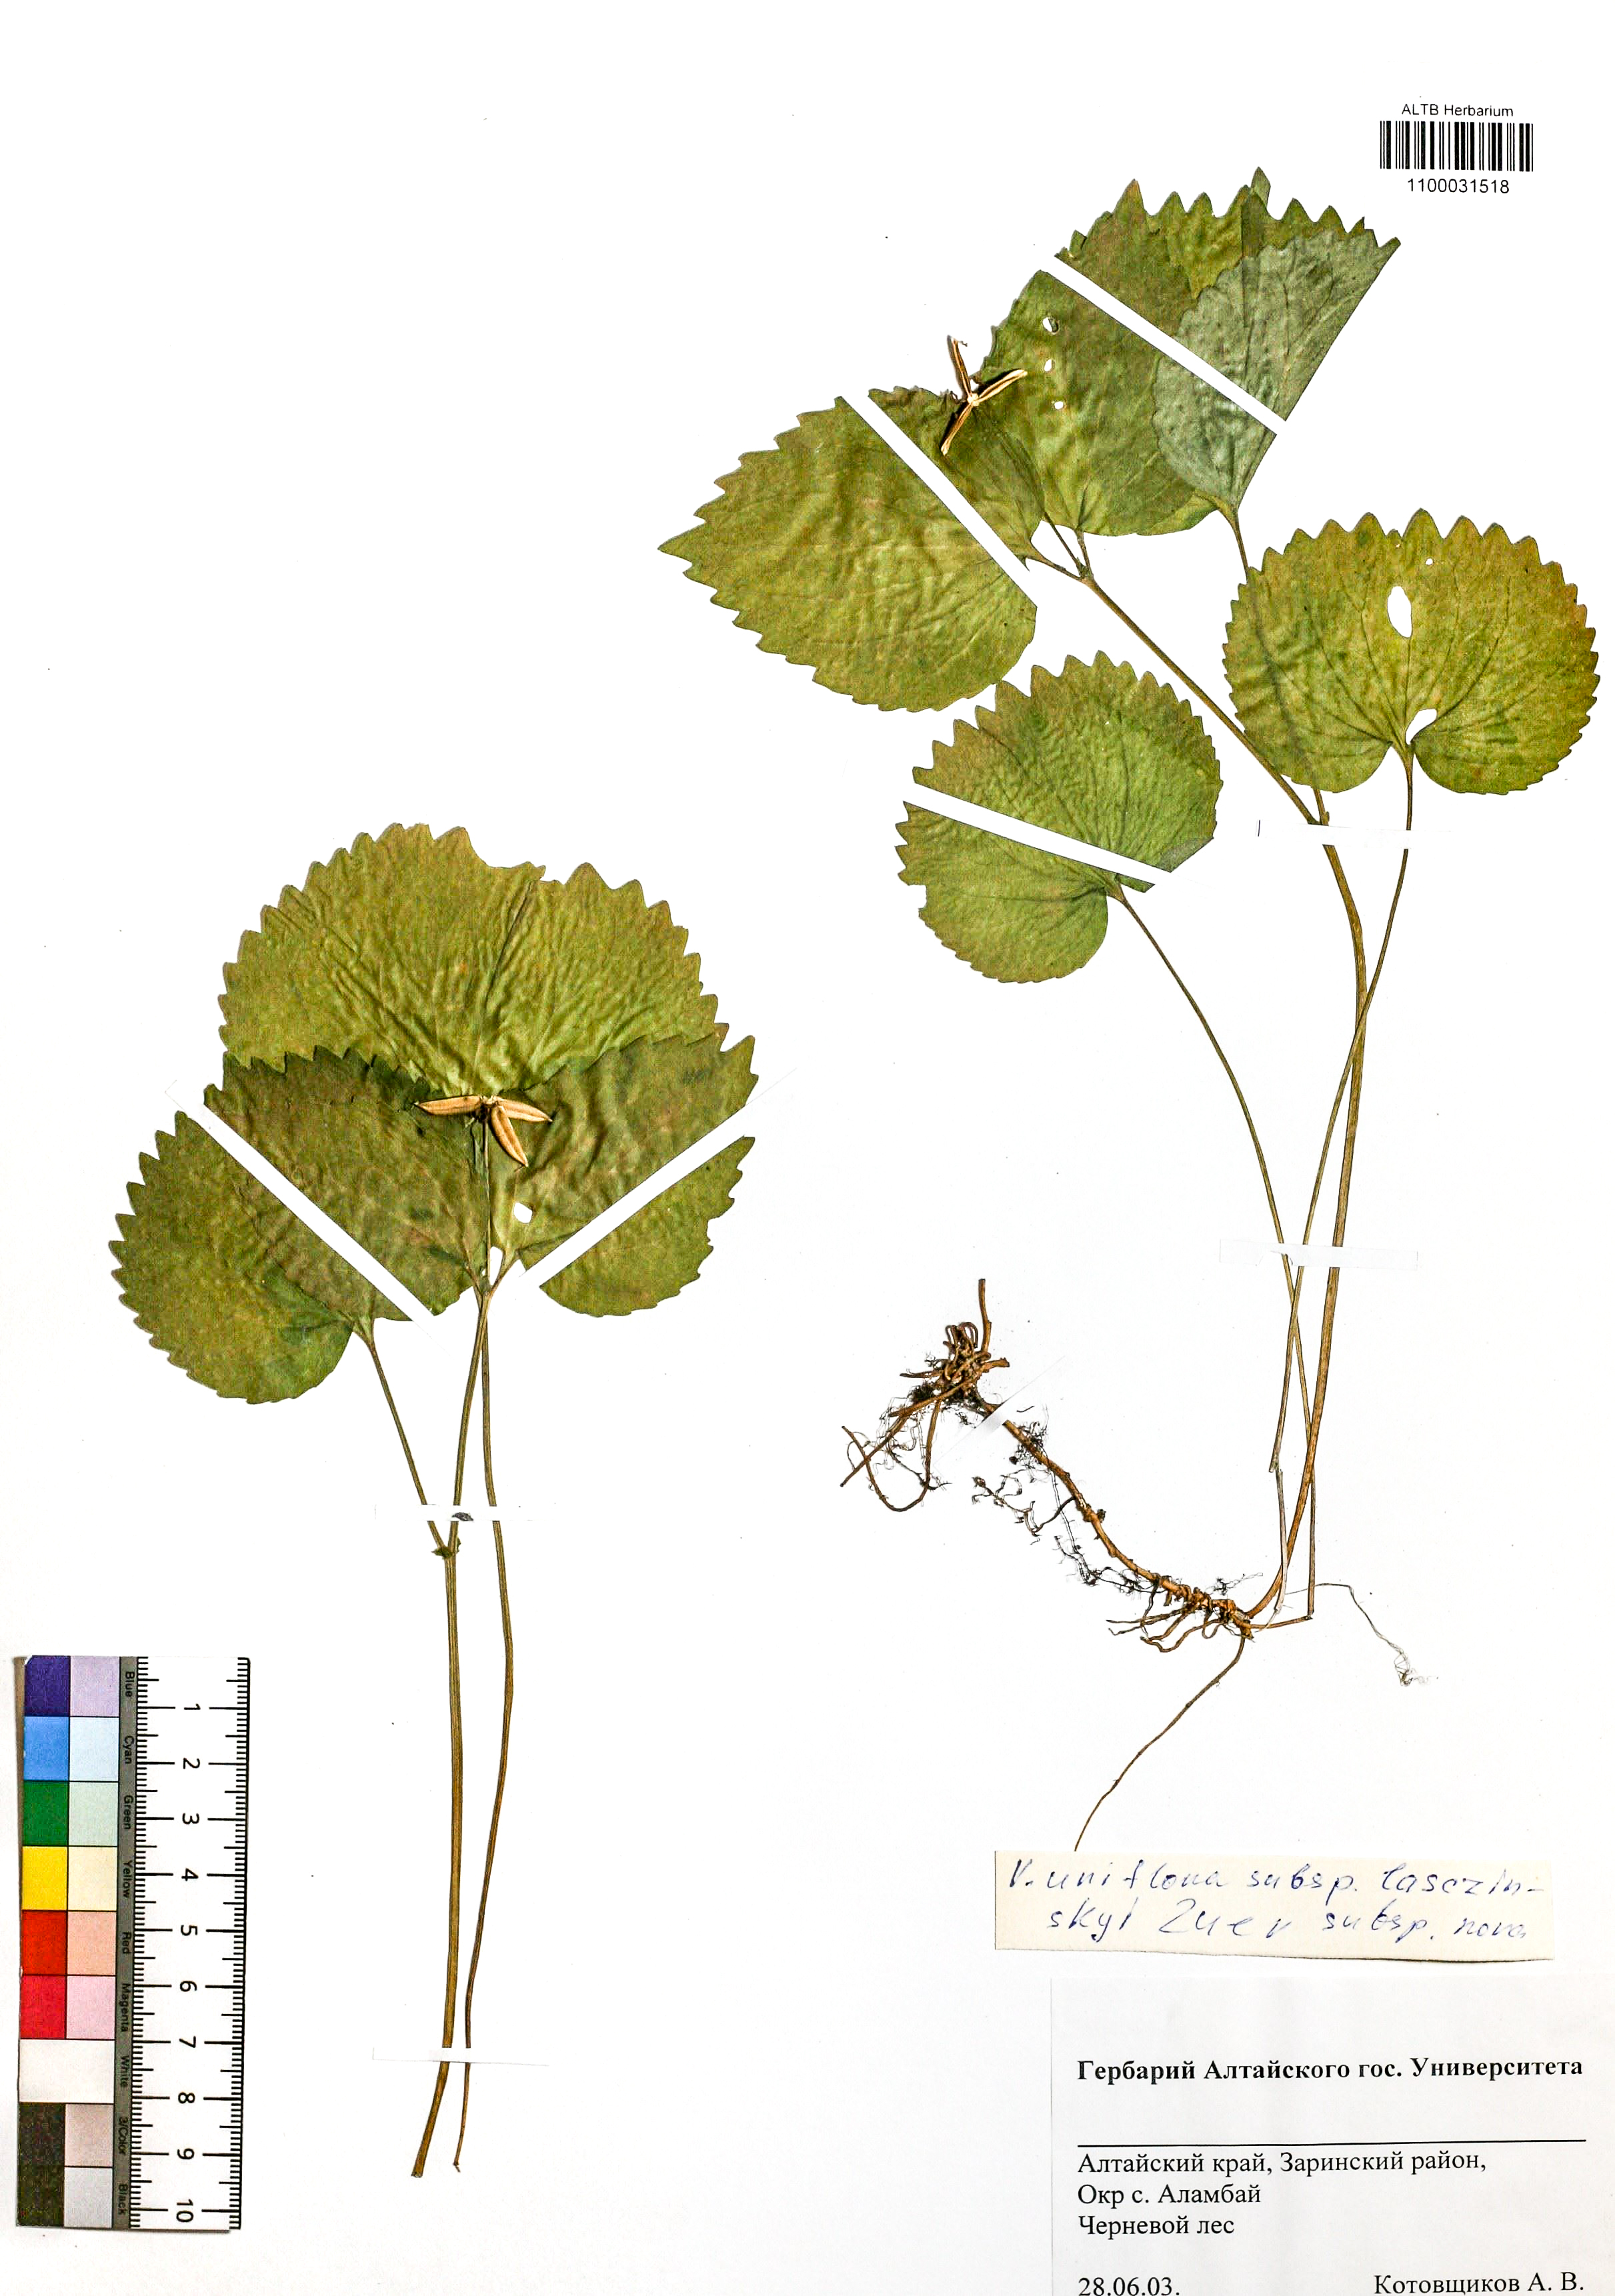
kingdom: Plantae
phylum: Tracheophyta
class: Magnoliopsida
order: Malpighiales
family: Violaceae
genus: Viola
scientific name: Viola uniflora
